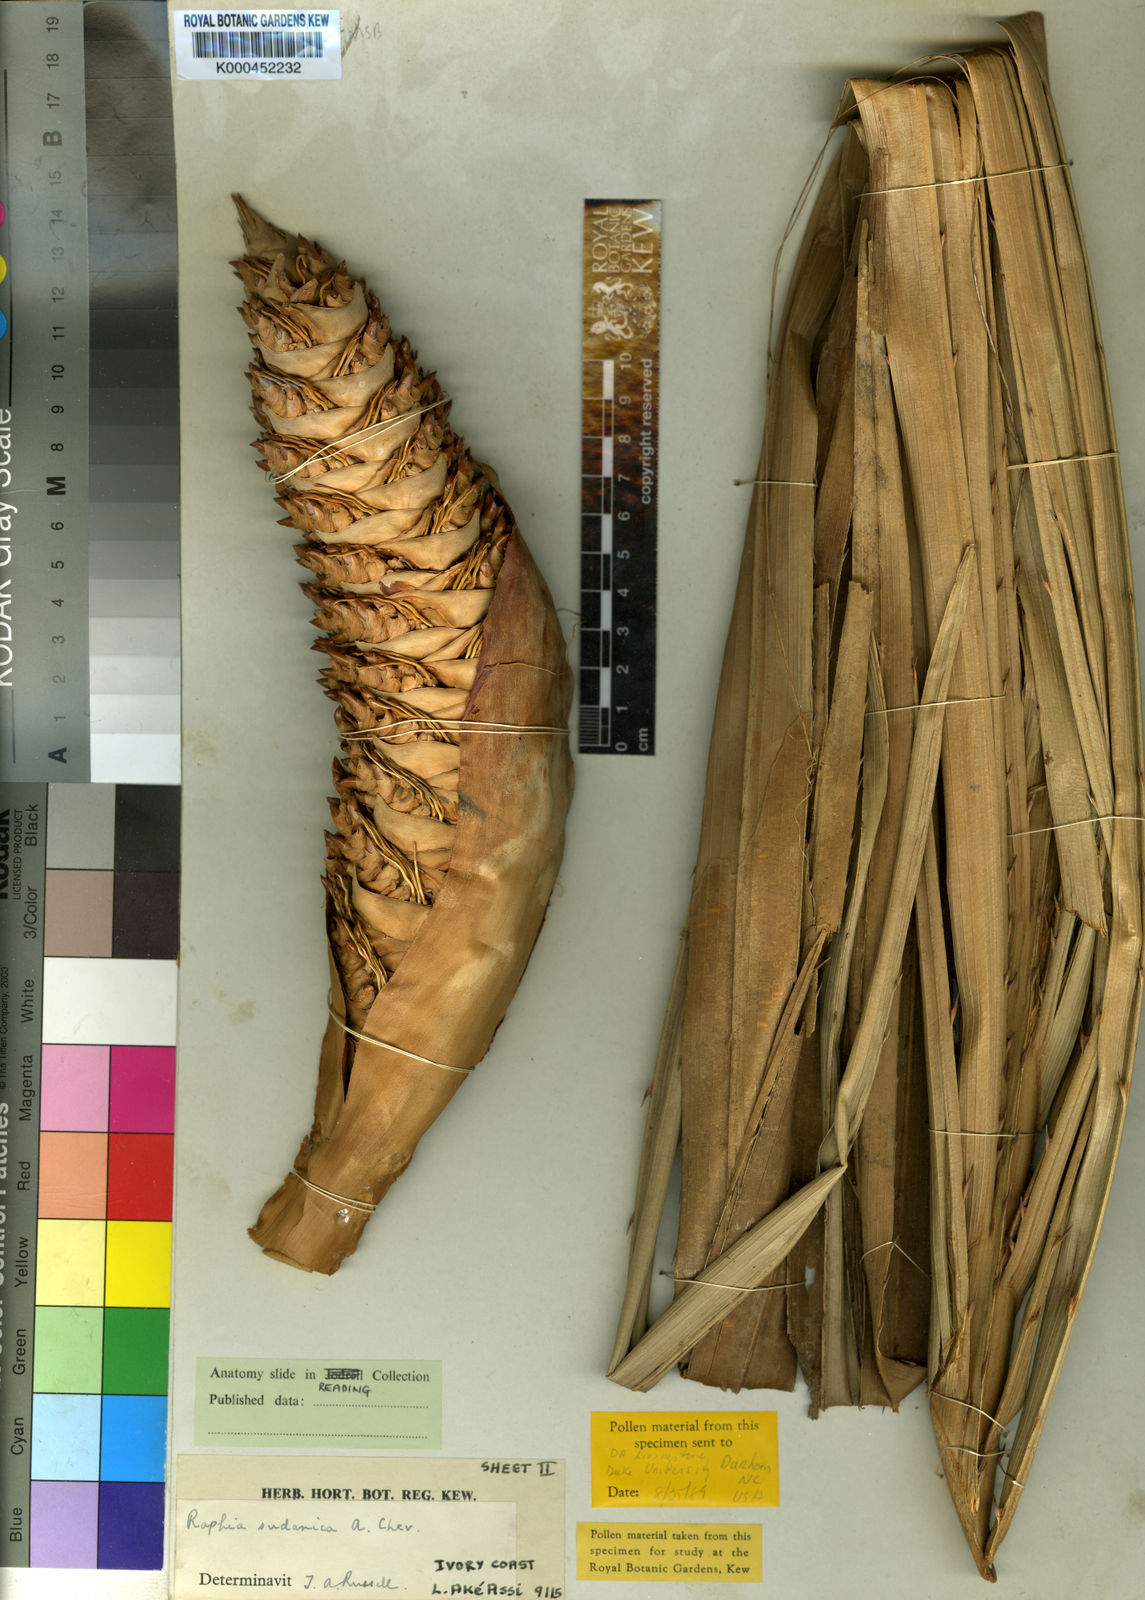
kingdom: Plantae
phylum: Tracheophyta
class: Liliopsida
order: Arecales
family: Arecaceae
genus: Raphia
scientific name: Raphia sudanica
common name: Northern raphia
